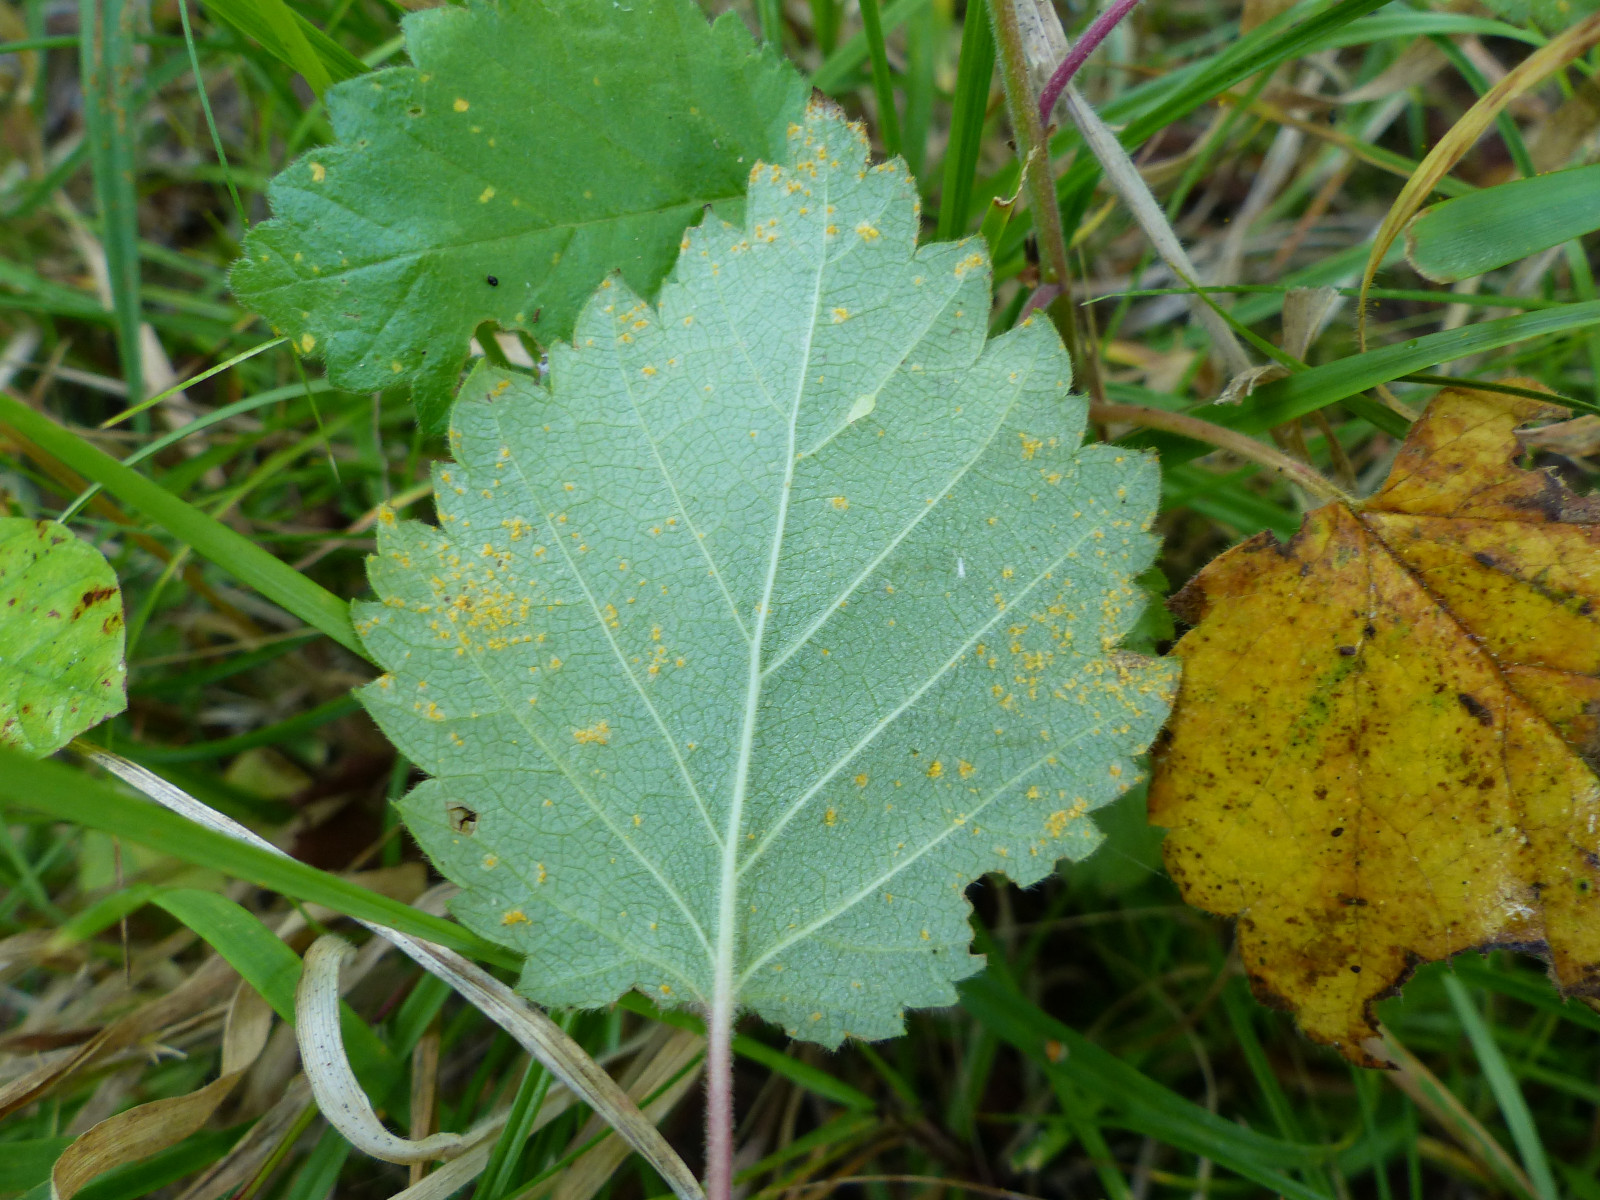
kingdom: Fungi
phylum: Basidiomycota
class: Pucciniomycetes
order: Pucciniales
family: Pucciniastraceae
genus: Melampsoridium
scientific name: Melampsoridium betulinum
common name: Birch rust
